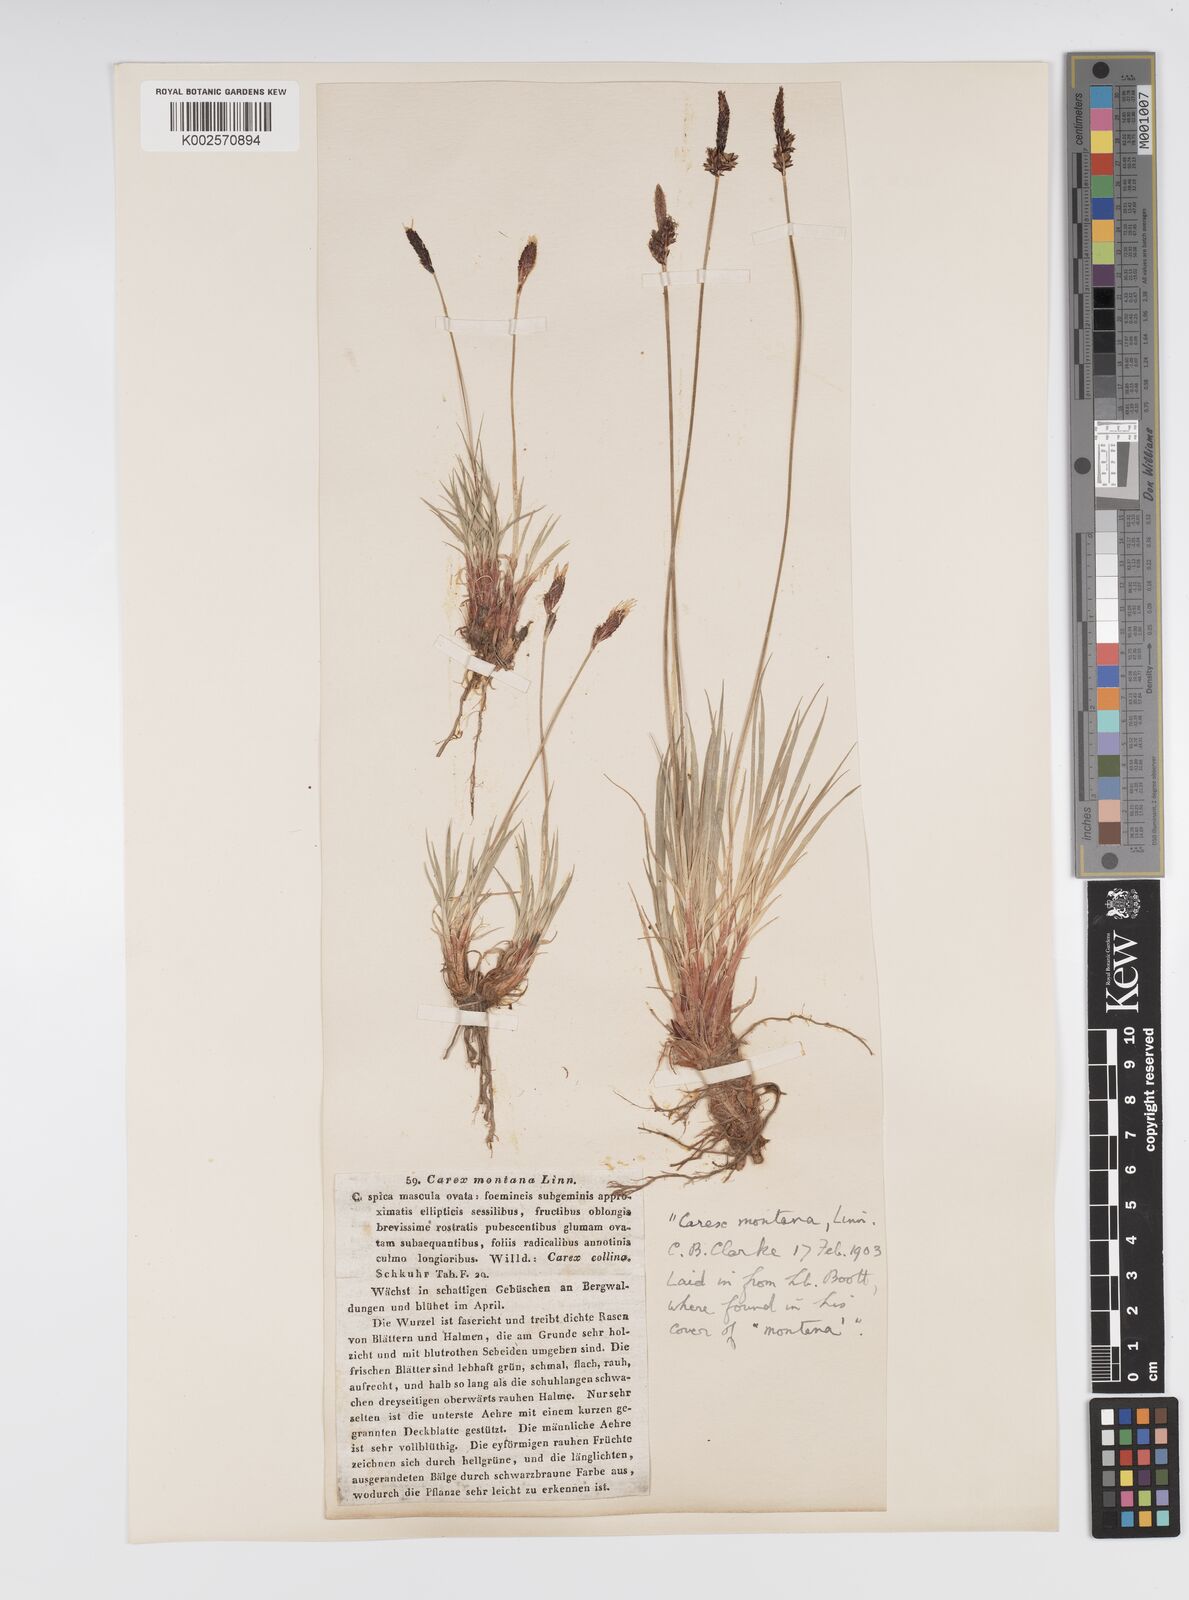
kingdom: Plantae
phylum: Tracheophyta
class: Liliopsida
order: Poales
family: Cyperaceae
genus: Carex
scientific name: Carex montana
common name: Soft-leaved sedge
